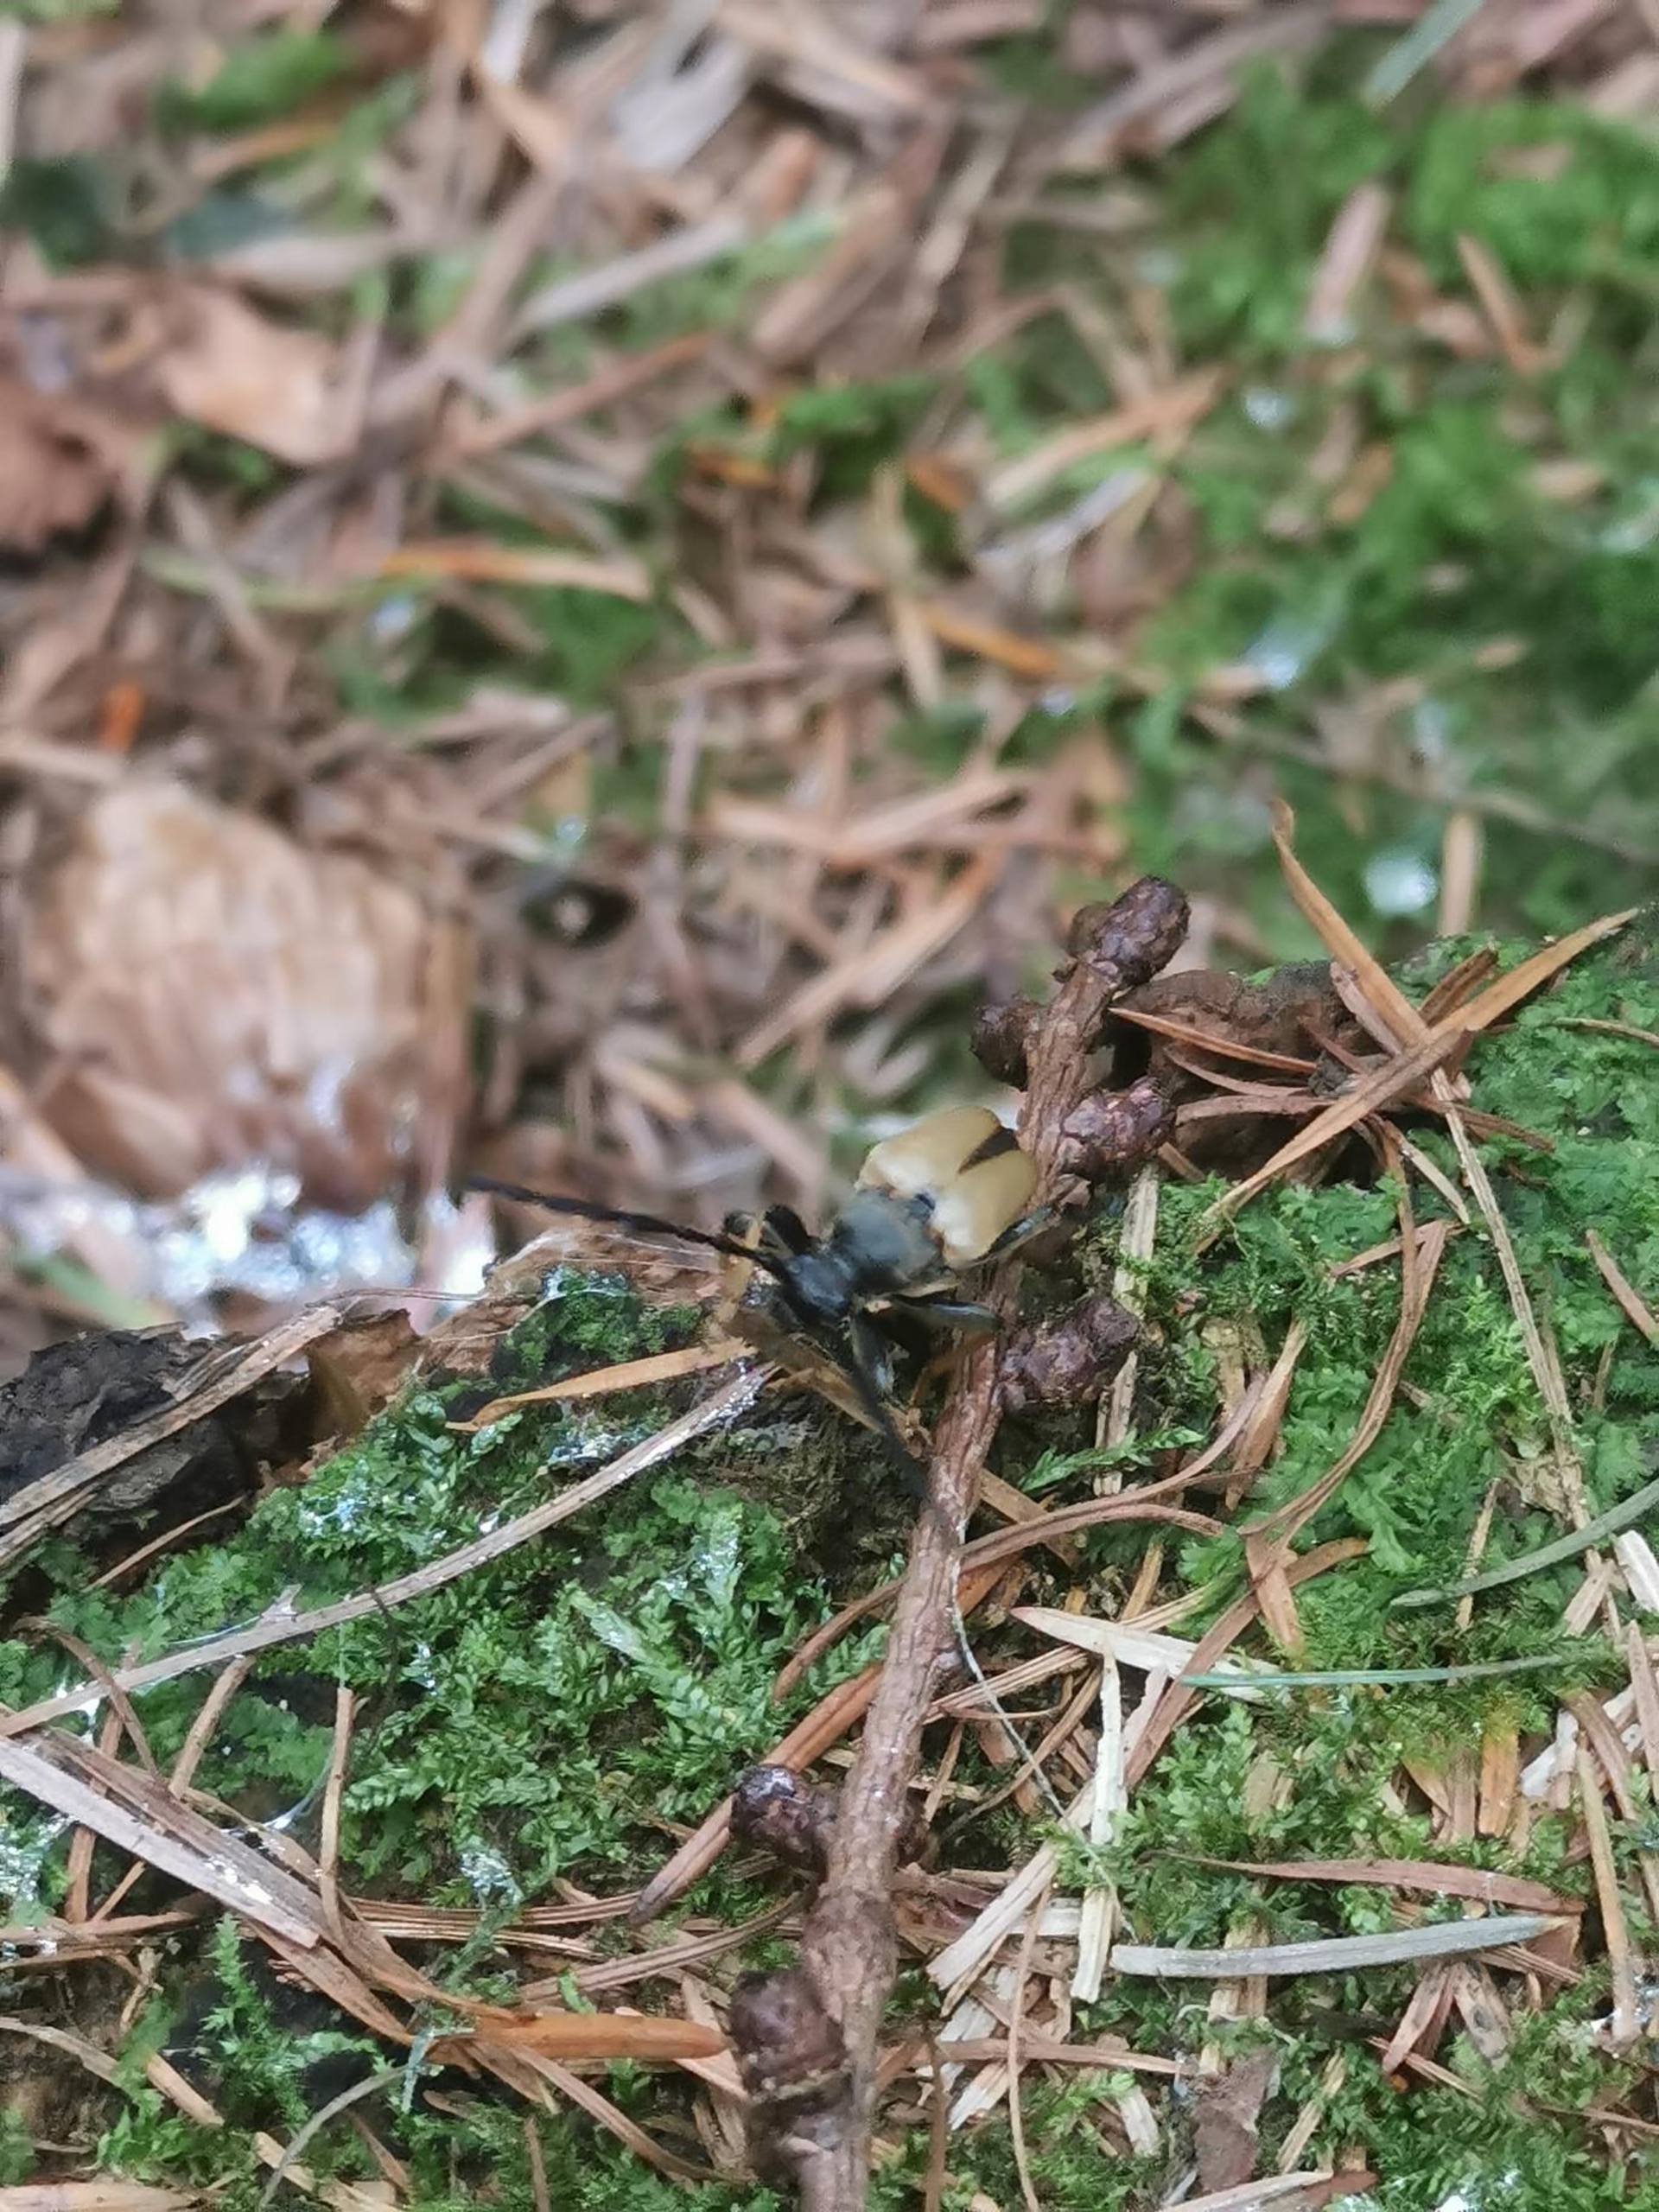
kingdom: Animalia
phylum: Arthropoda
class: Insecta
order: Coleoptera
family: Cerambycidae
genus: Stictoleptura
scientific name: Stictoleptura rubra
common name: Rød blomsterbuk
